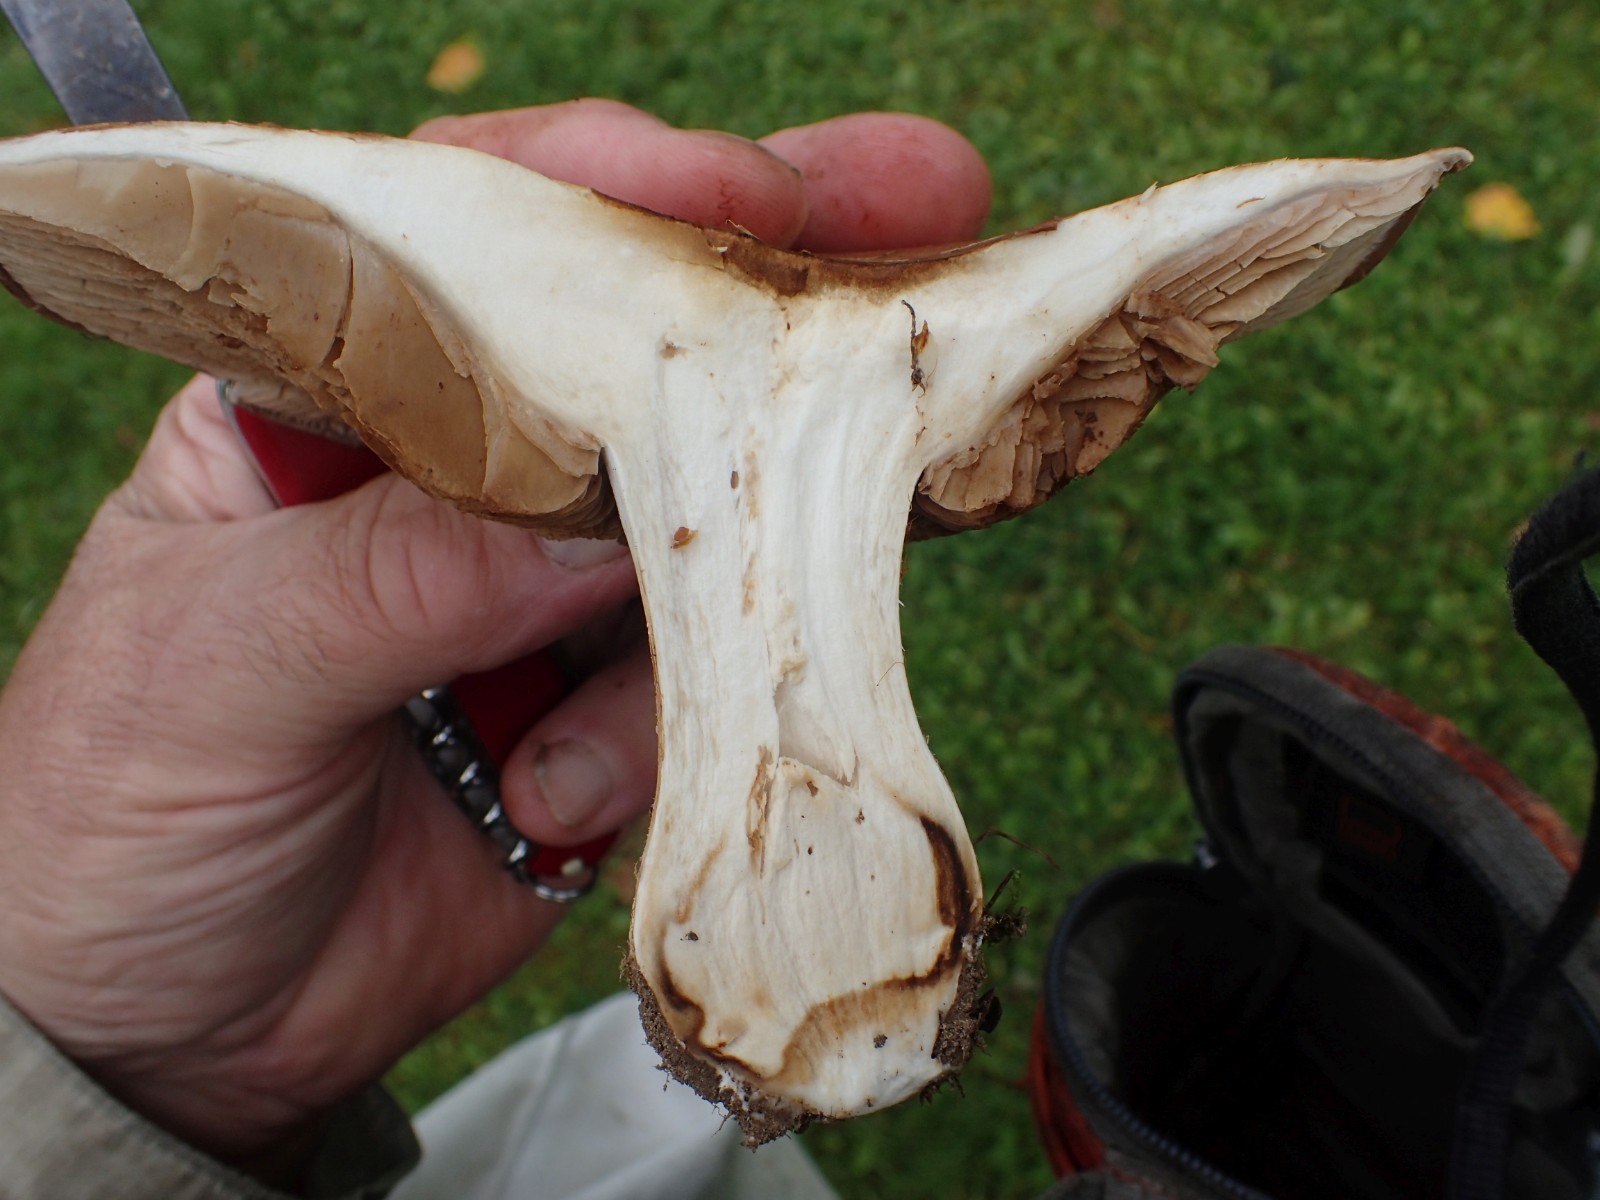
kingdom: Fungi
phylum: Basidiomycota
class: Agaricomycetes
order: Agaricales
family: Cortinariaceae
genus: Phlegmacium
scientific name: Phlegmacium balteatocumatile
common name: violettrådet slørhat
